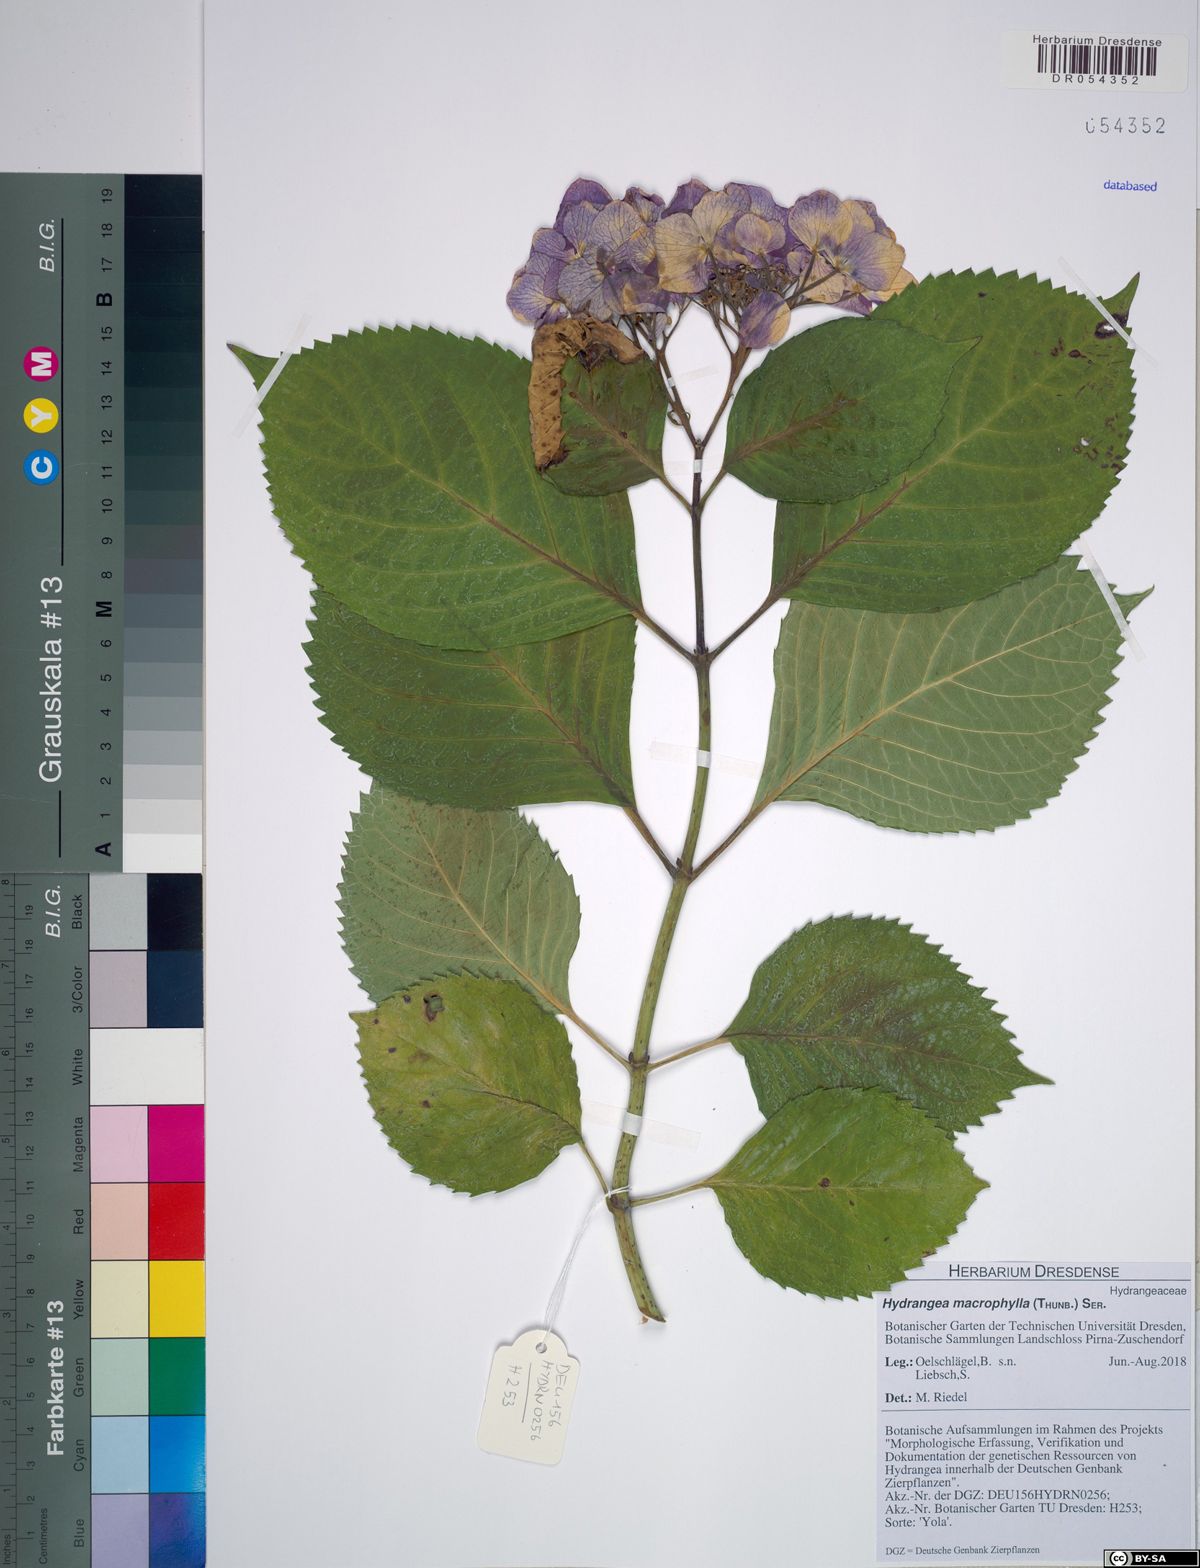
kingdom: Plantae
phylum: Tracheophyta
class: Magnoliopsida
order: Cornales
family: Hydrangeaceae
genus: Hydrangea
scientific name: Hydrangea macrophylla
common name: Hydrangea
